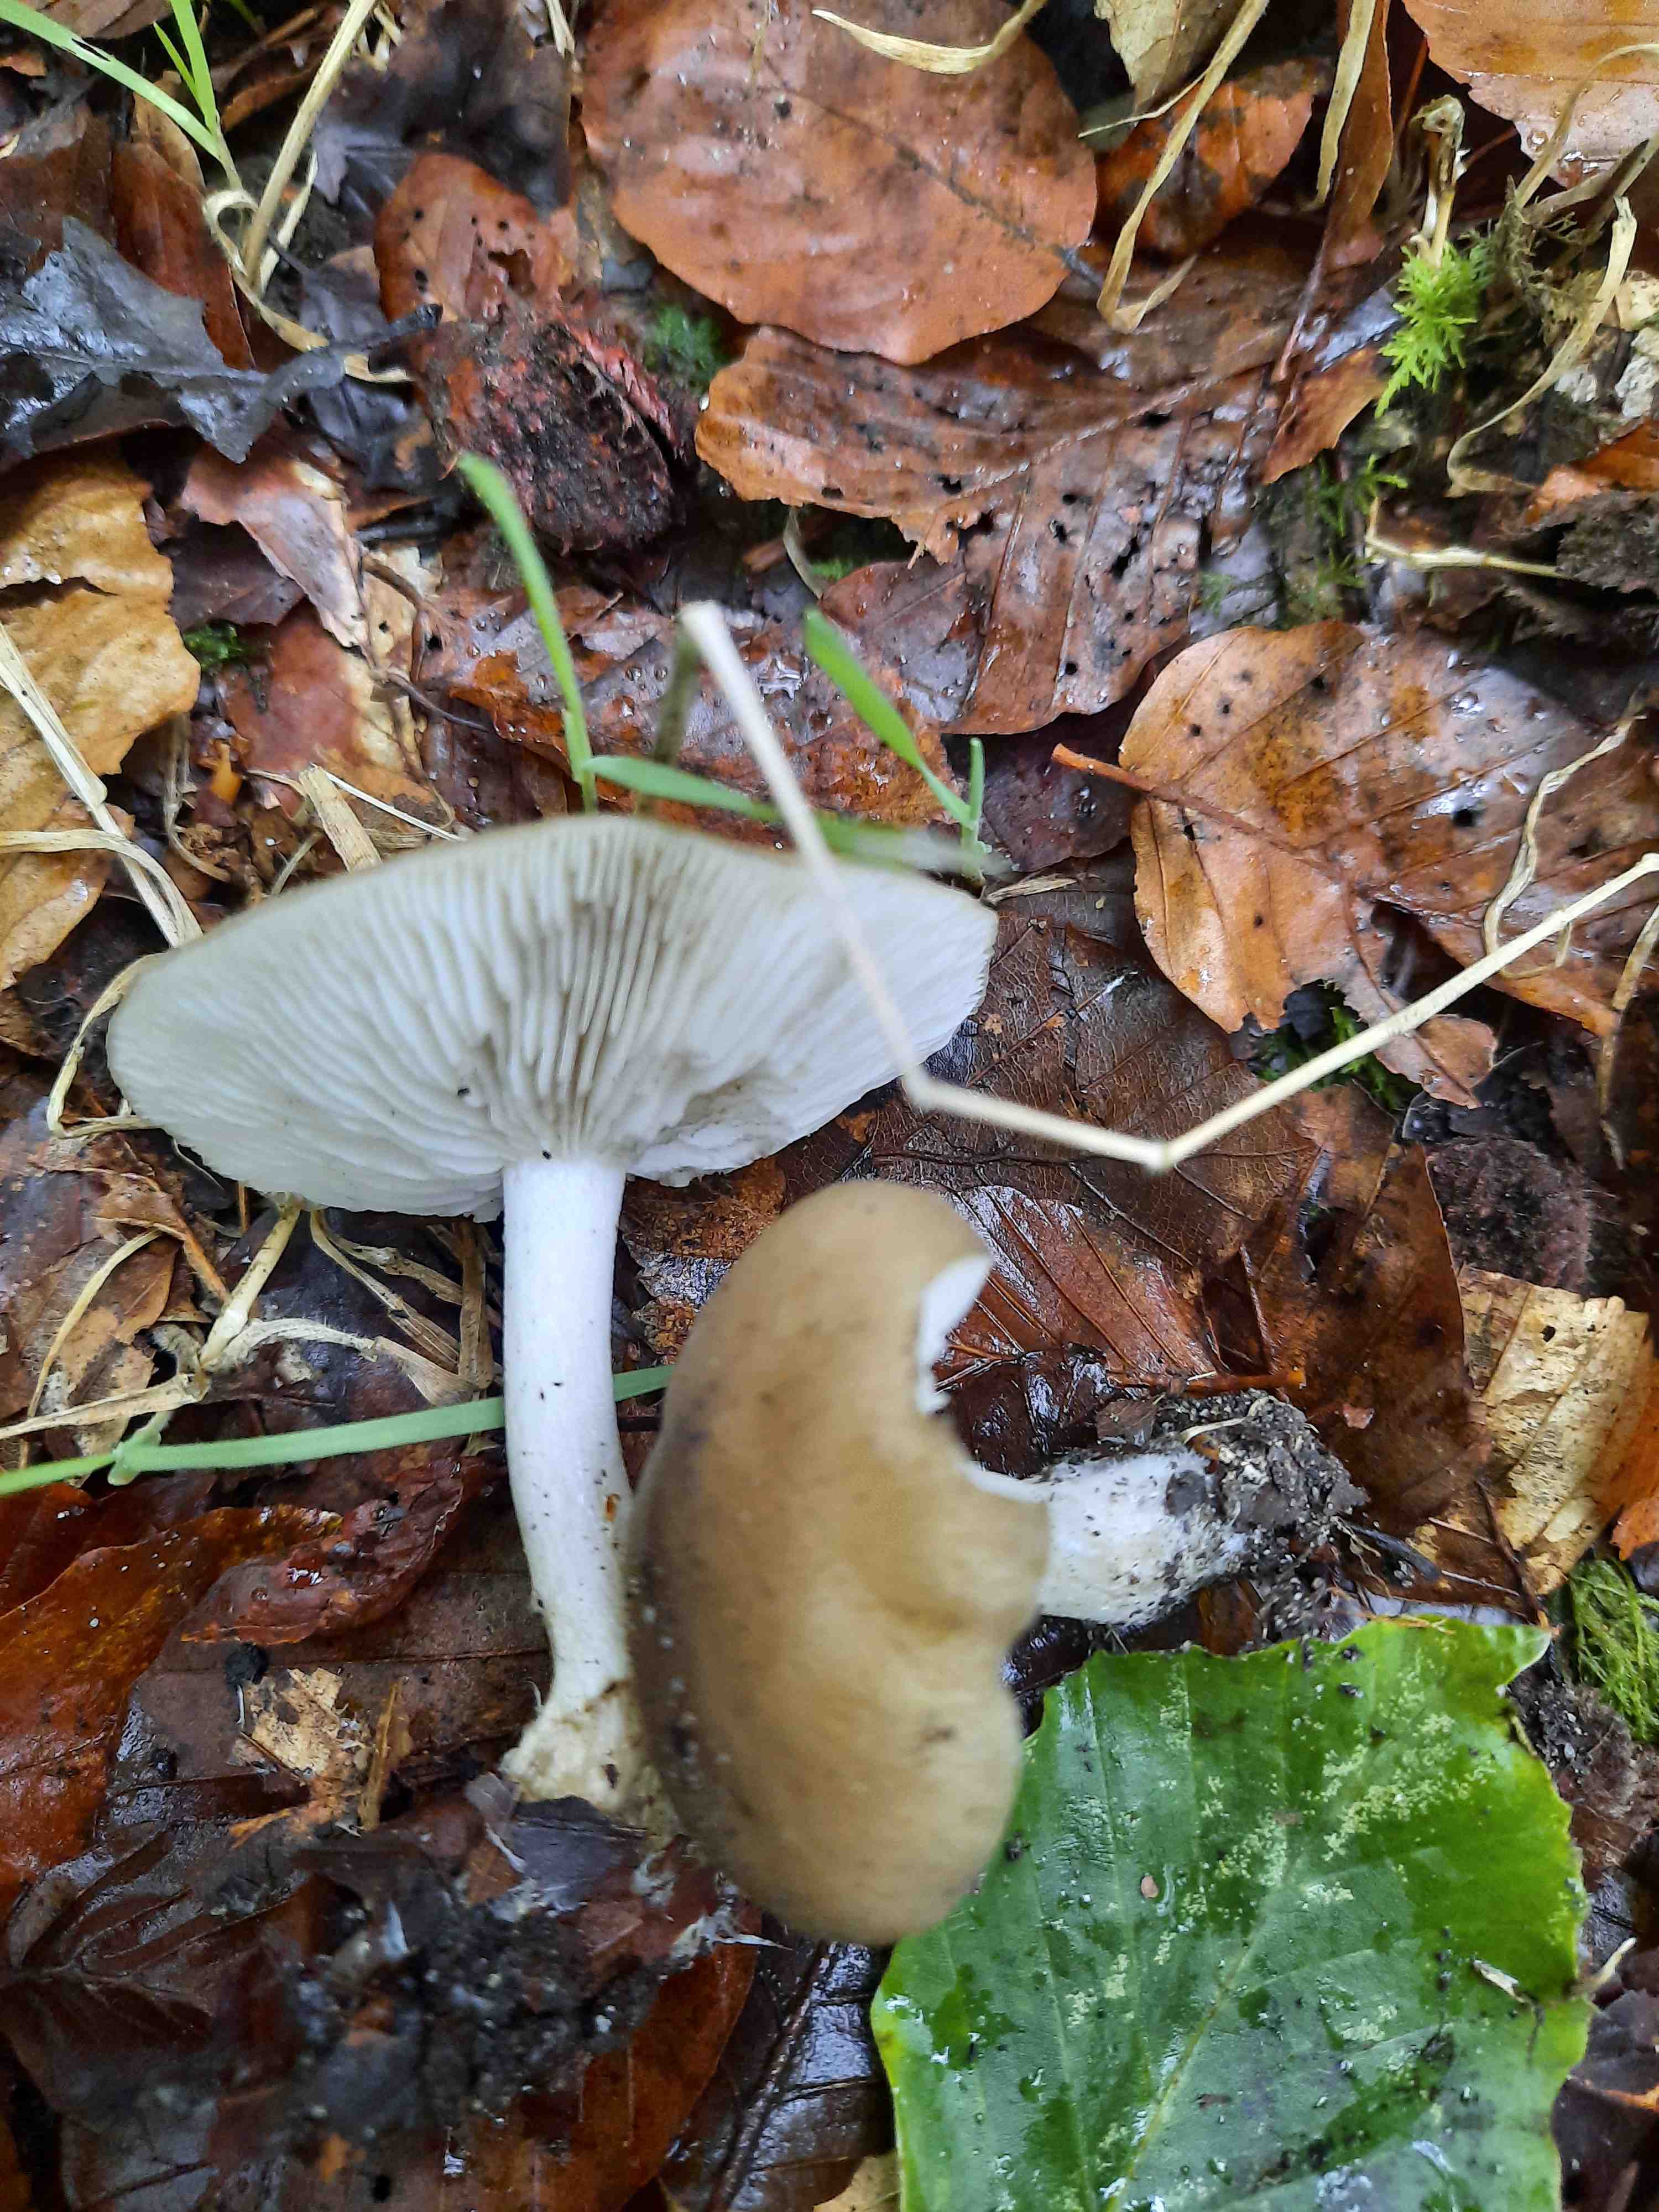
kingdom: Fungi
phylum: Basidiomycota
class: Agaricomycetes
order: Agaricales
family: Lyophyllaceae
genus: Lyophyllum
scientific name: Lyophyllum deliberatum
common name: gråbrun gråblad
